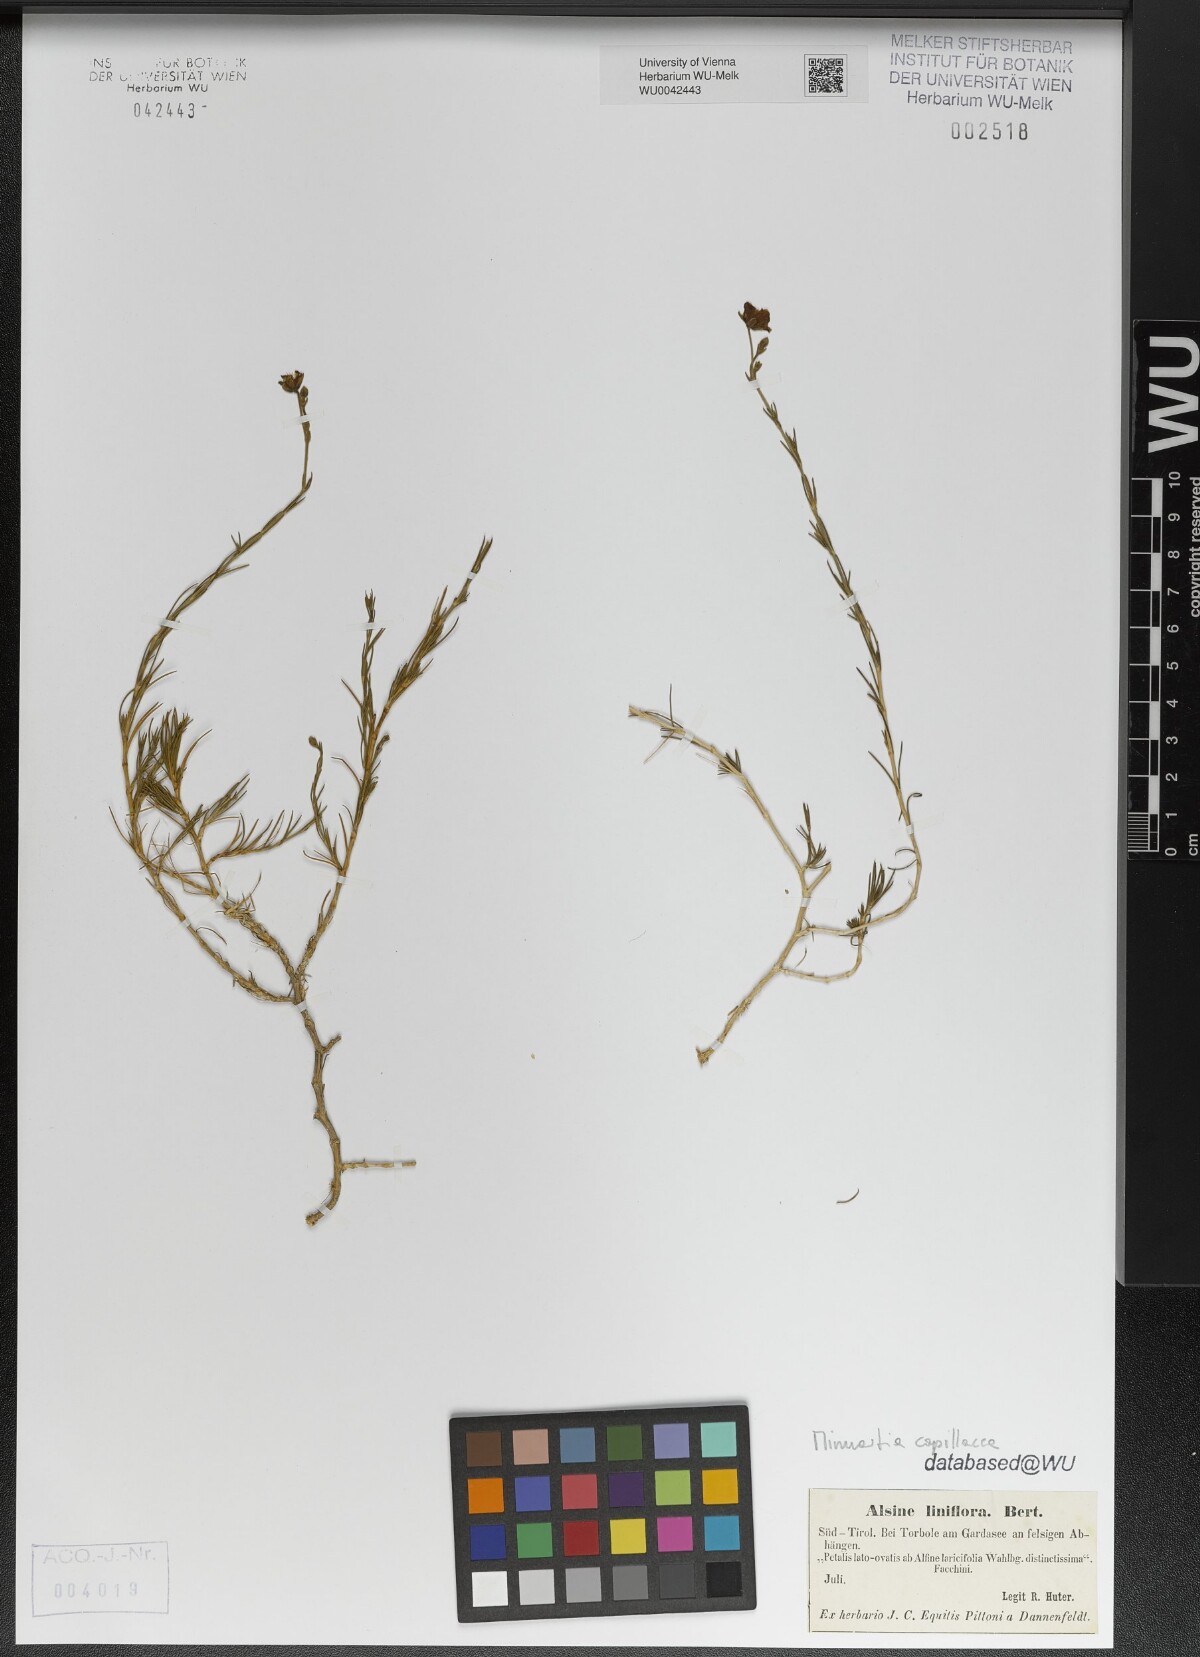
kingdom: Plantae
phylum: Tracheophyta
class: Magnoliopsida
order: Caryophyllales
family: Caryophyllaceae
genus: Cherleria
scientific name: Cherleria capillacea
